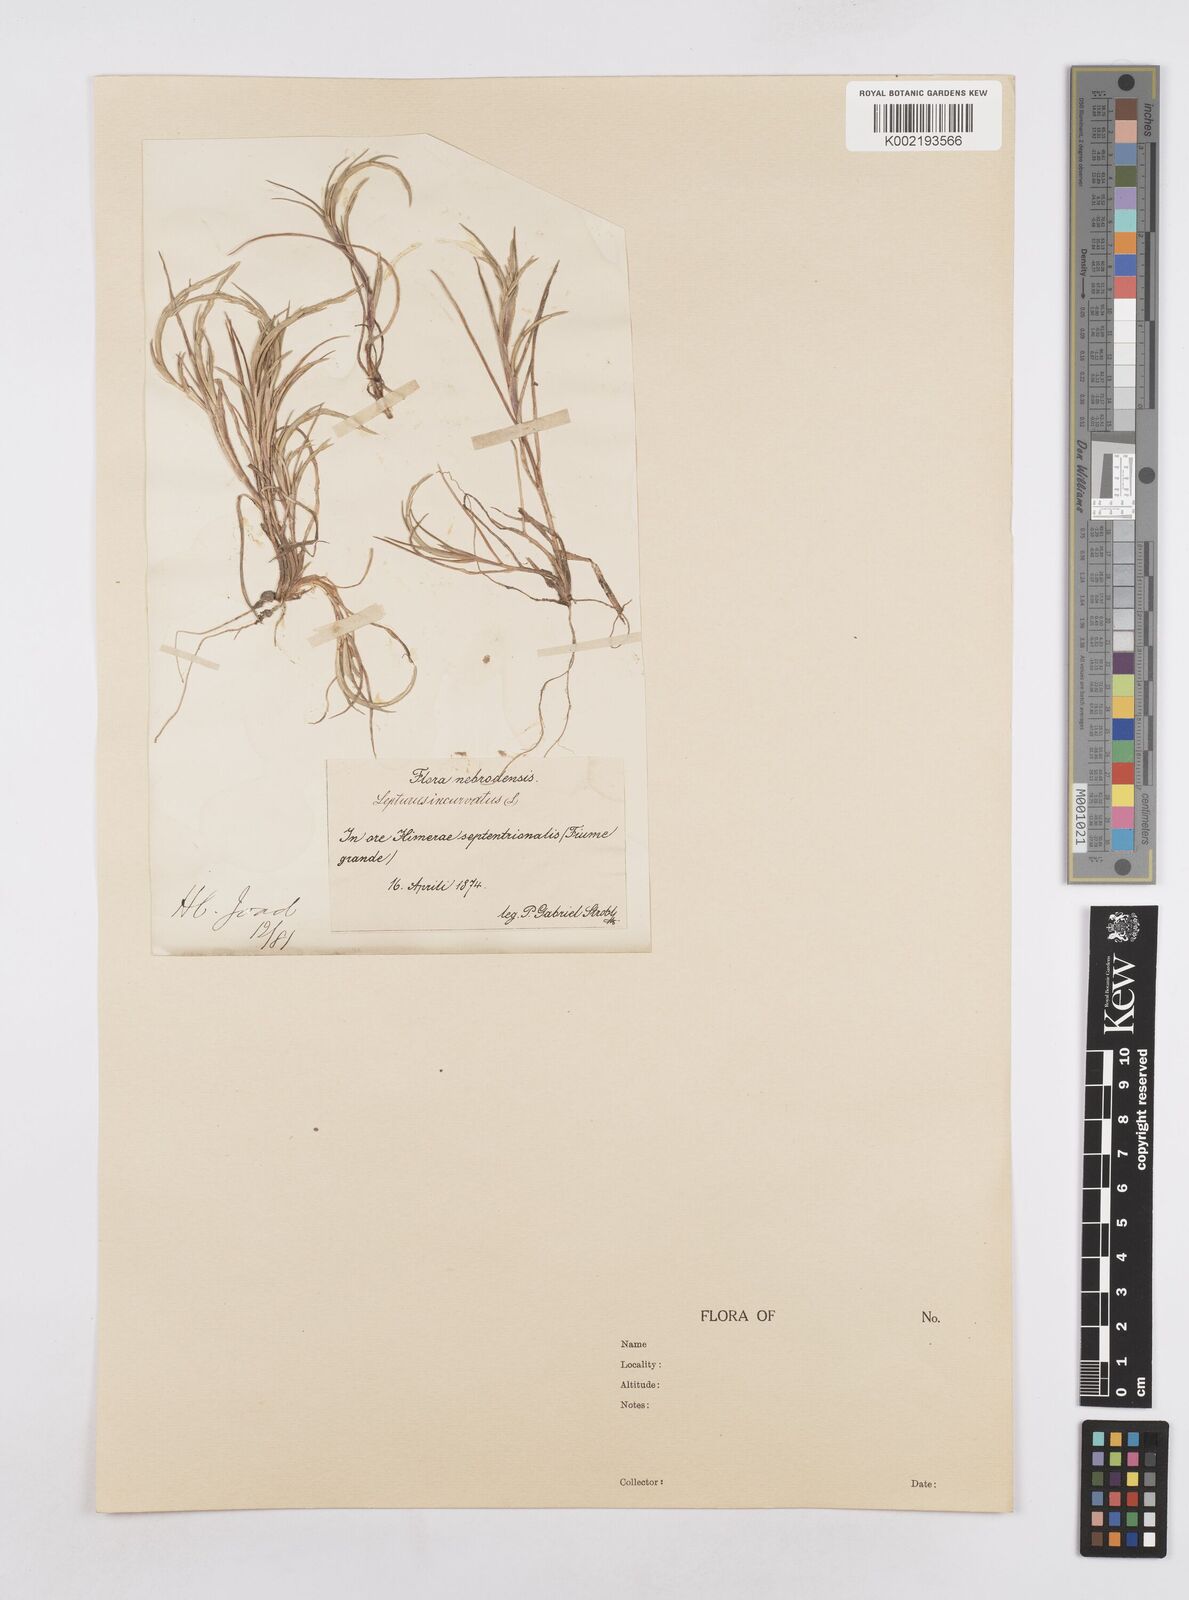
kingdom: Plantae
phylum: Tracheophyta
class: Liliopsida
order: Poales
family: Poaceae
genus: Parapholis
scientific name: Parapholis incurva
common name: Curved sicklegrass
